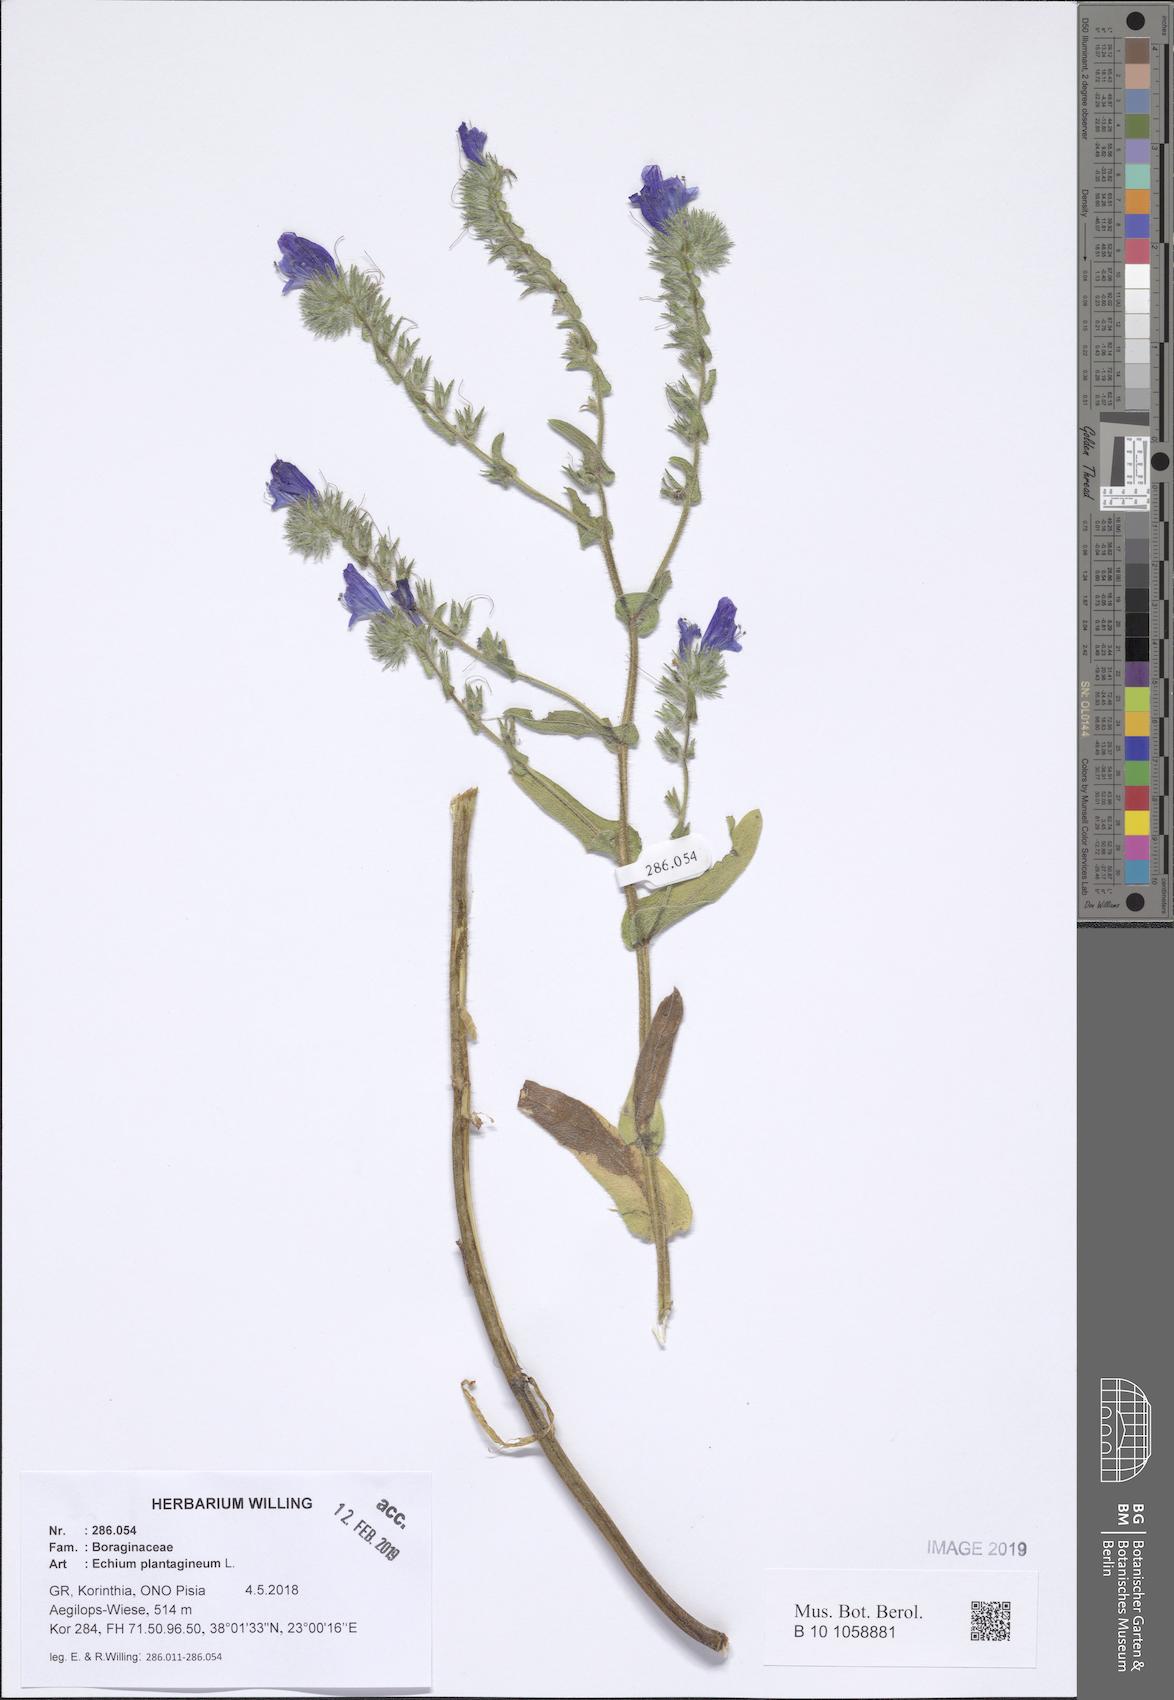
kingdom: Plantae
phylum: Tracheophyta
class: Magnoliopsida
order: Boraginales
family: Boraginaceae
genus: Echium
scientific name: Echium plantagineum
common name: Purple viper's-bugloss
